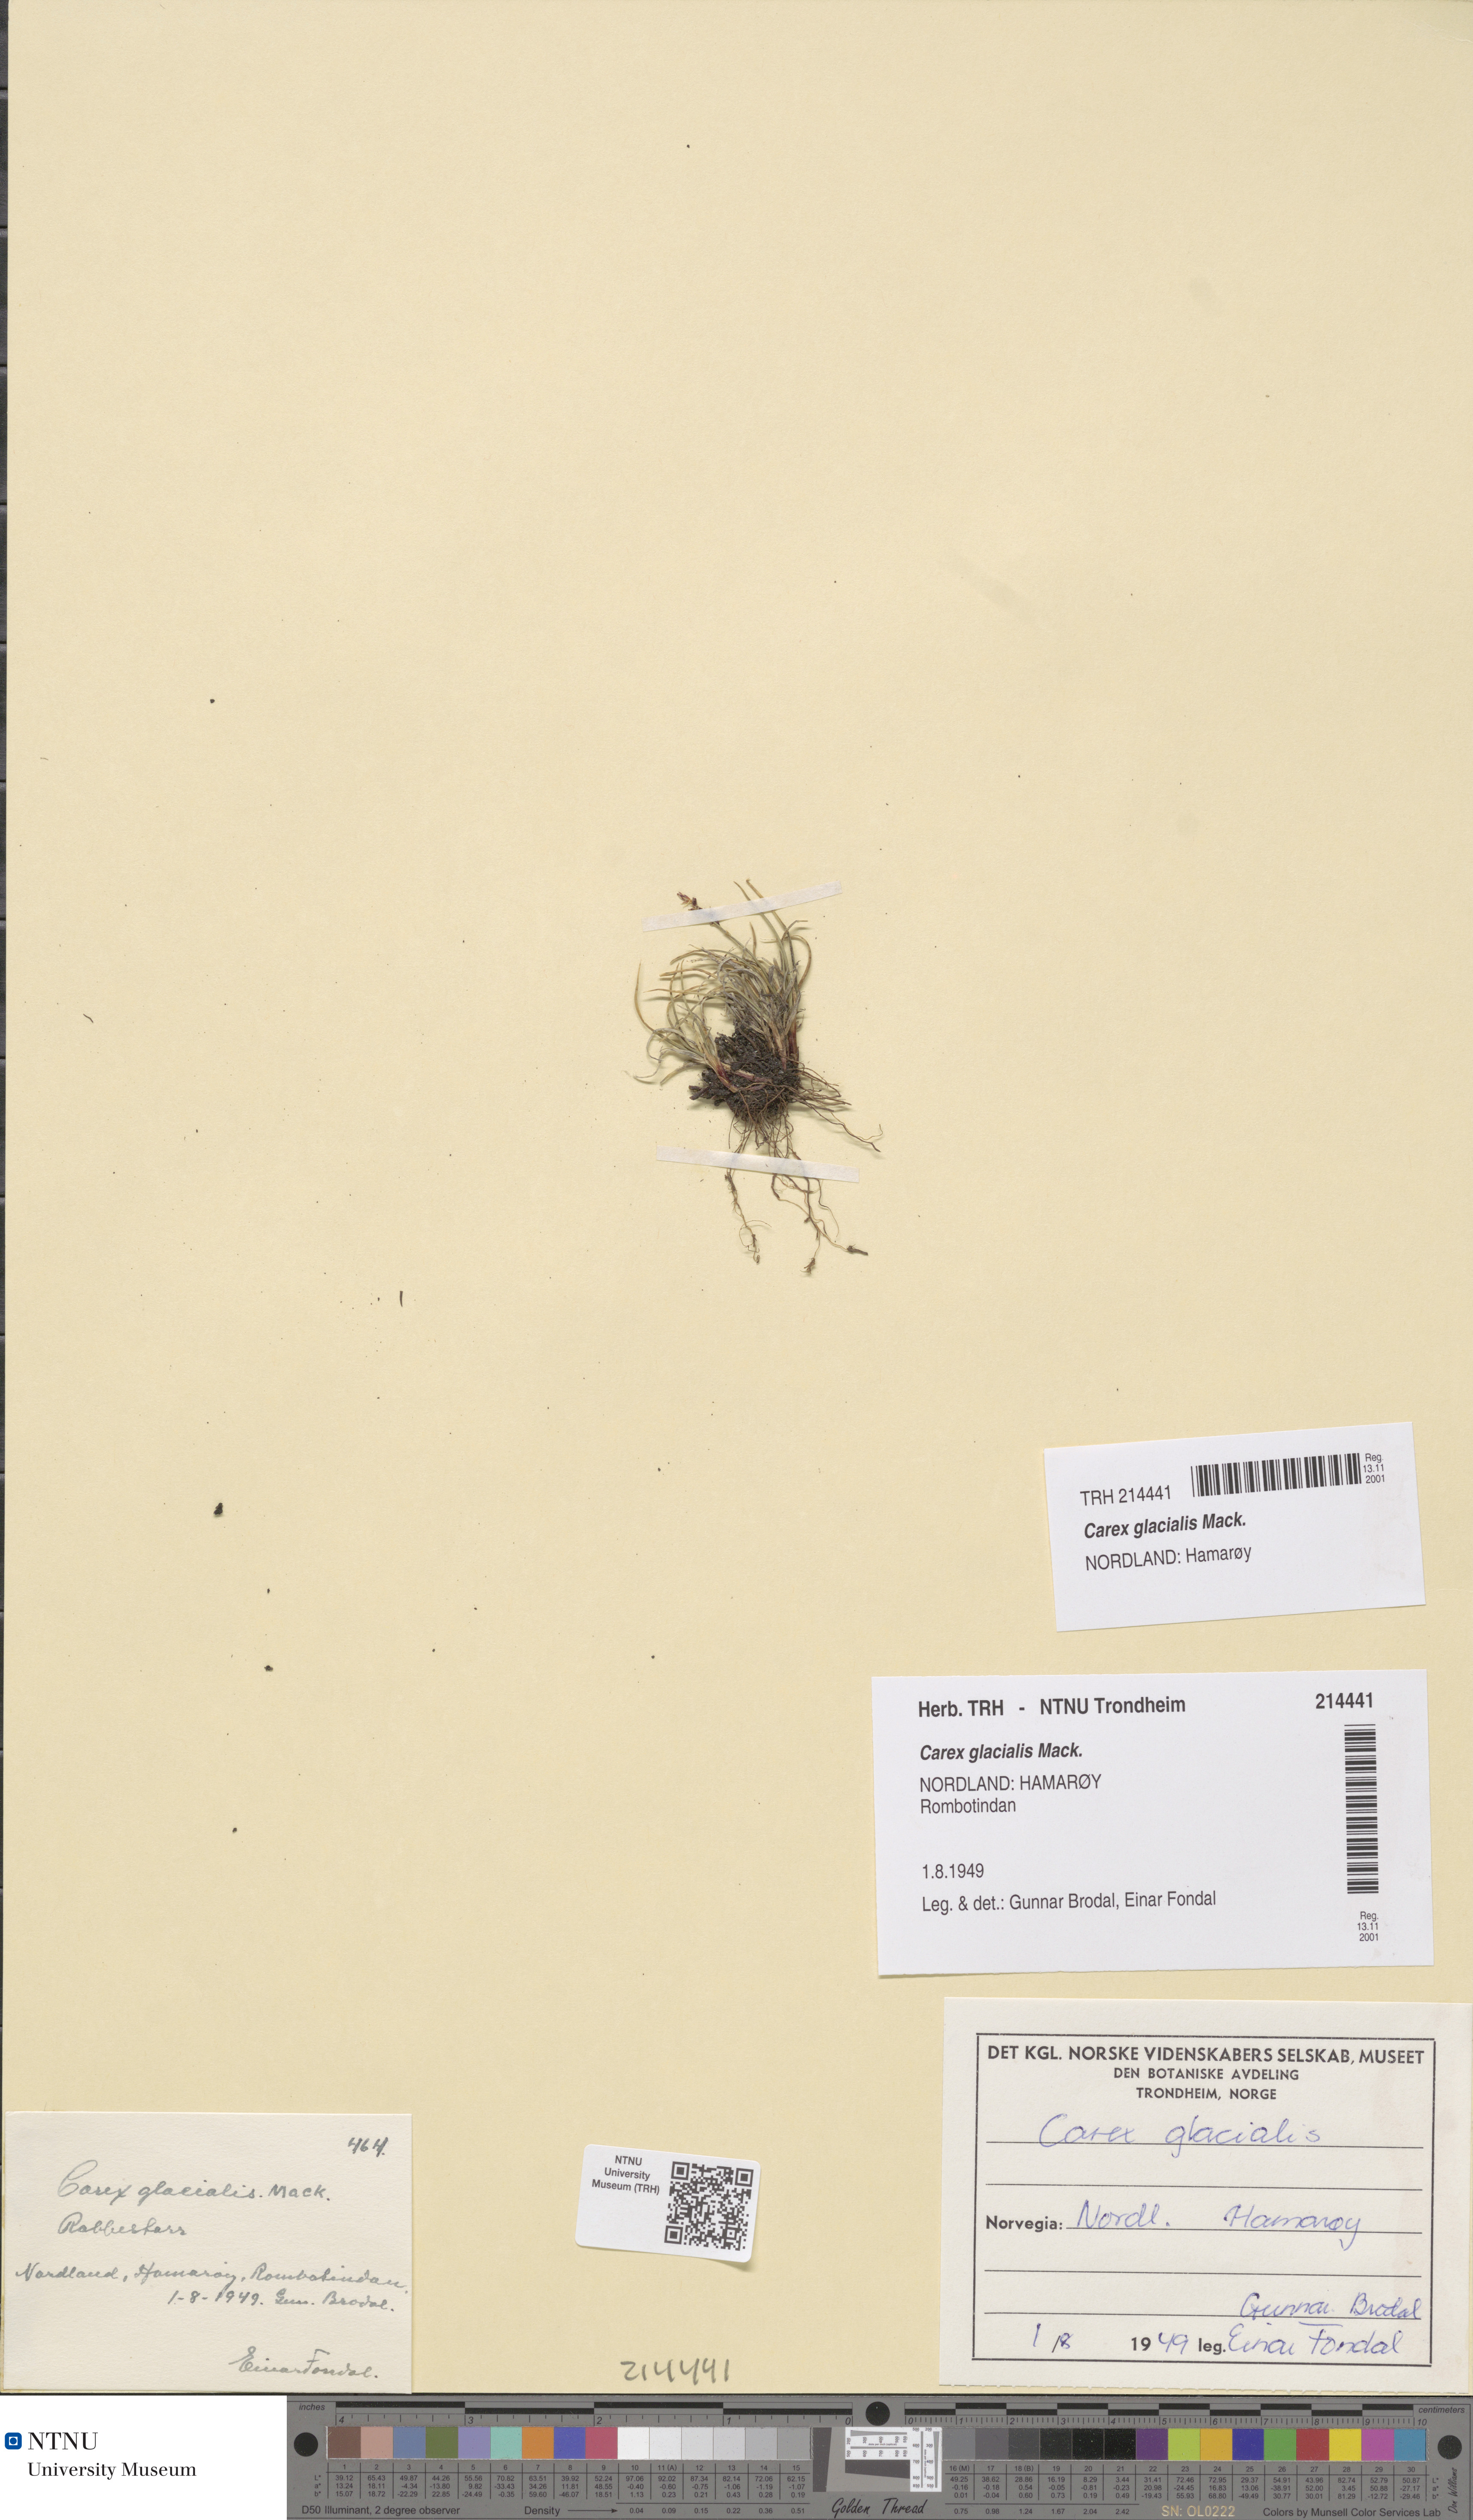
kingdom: Plantae
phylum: Tracheophyta
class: Liliopsida
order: Poales
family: Cyperaceae
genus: Carex
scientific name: Carex glacialis
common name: Newfoundland sedge
